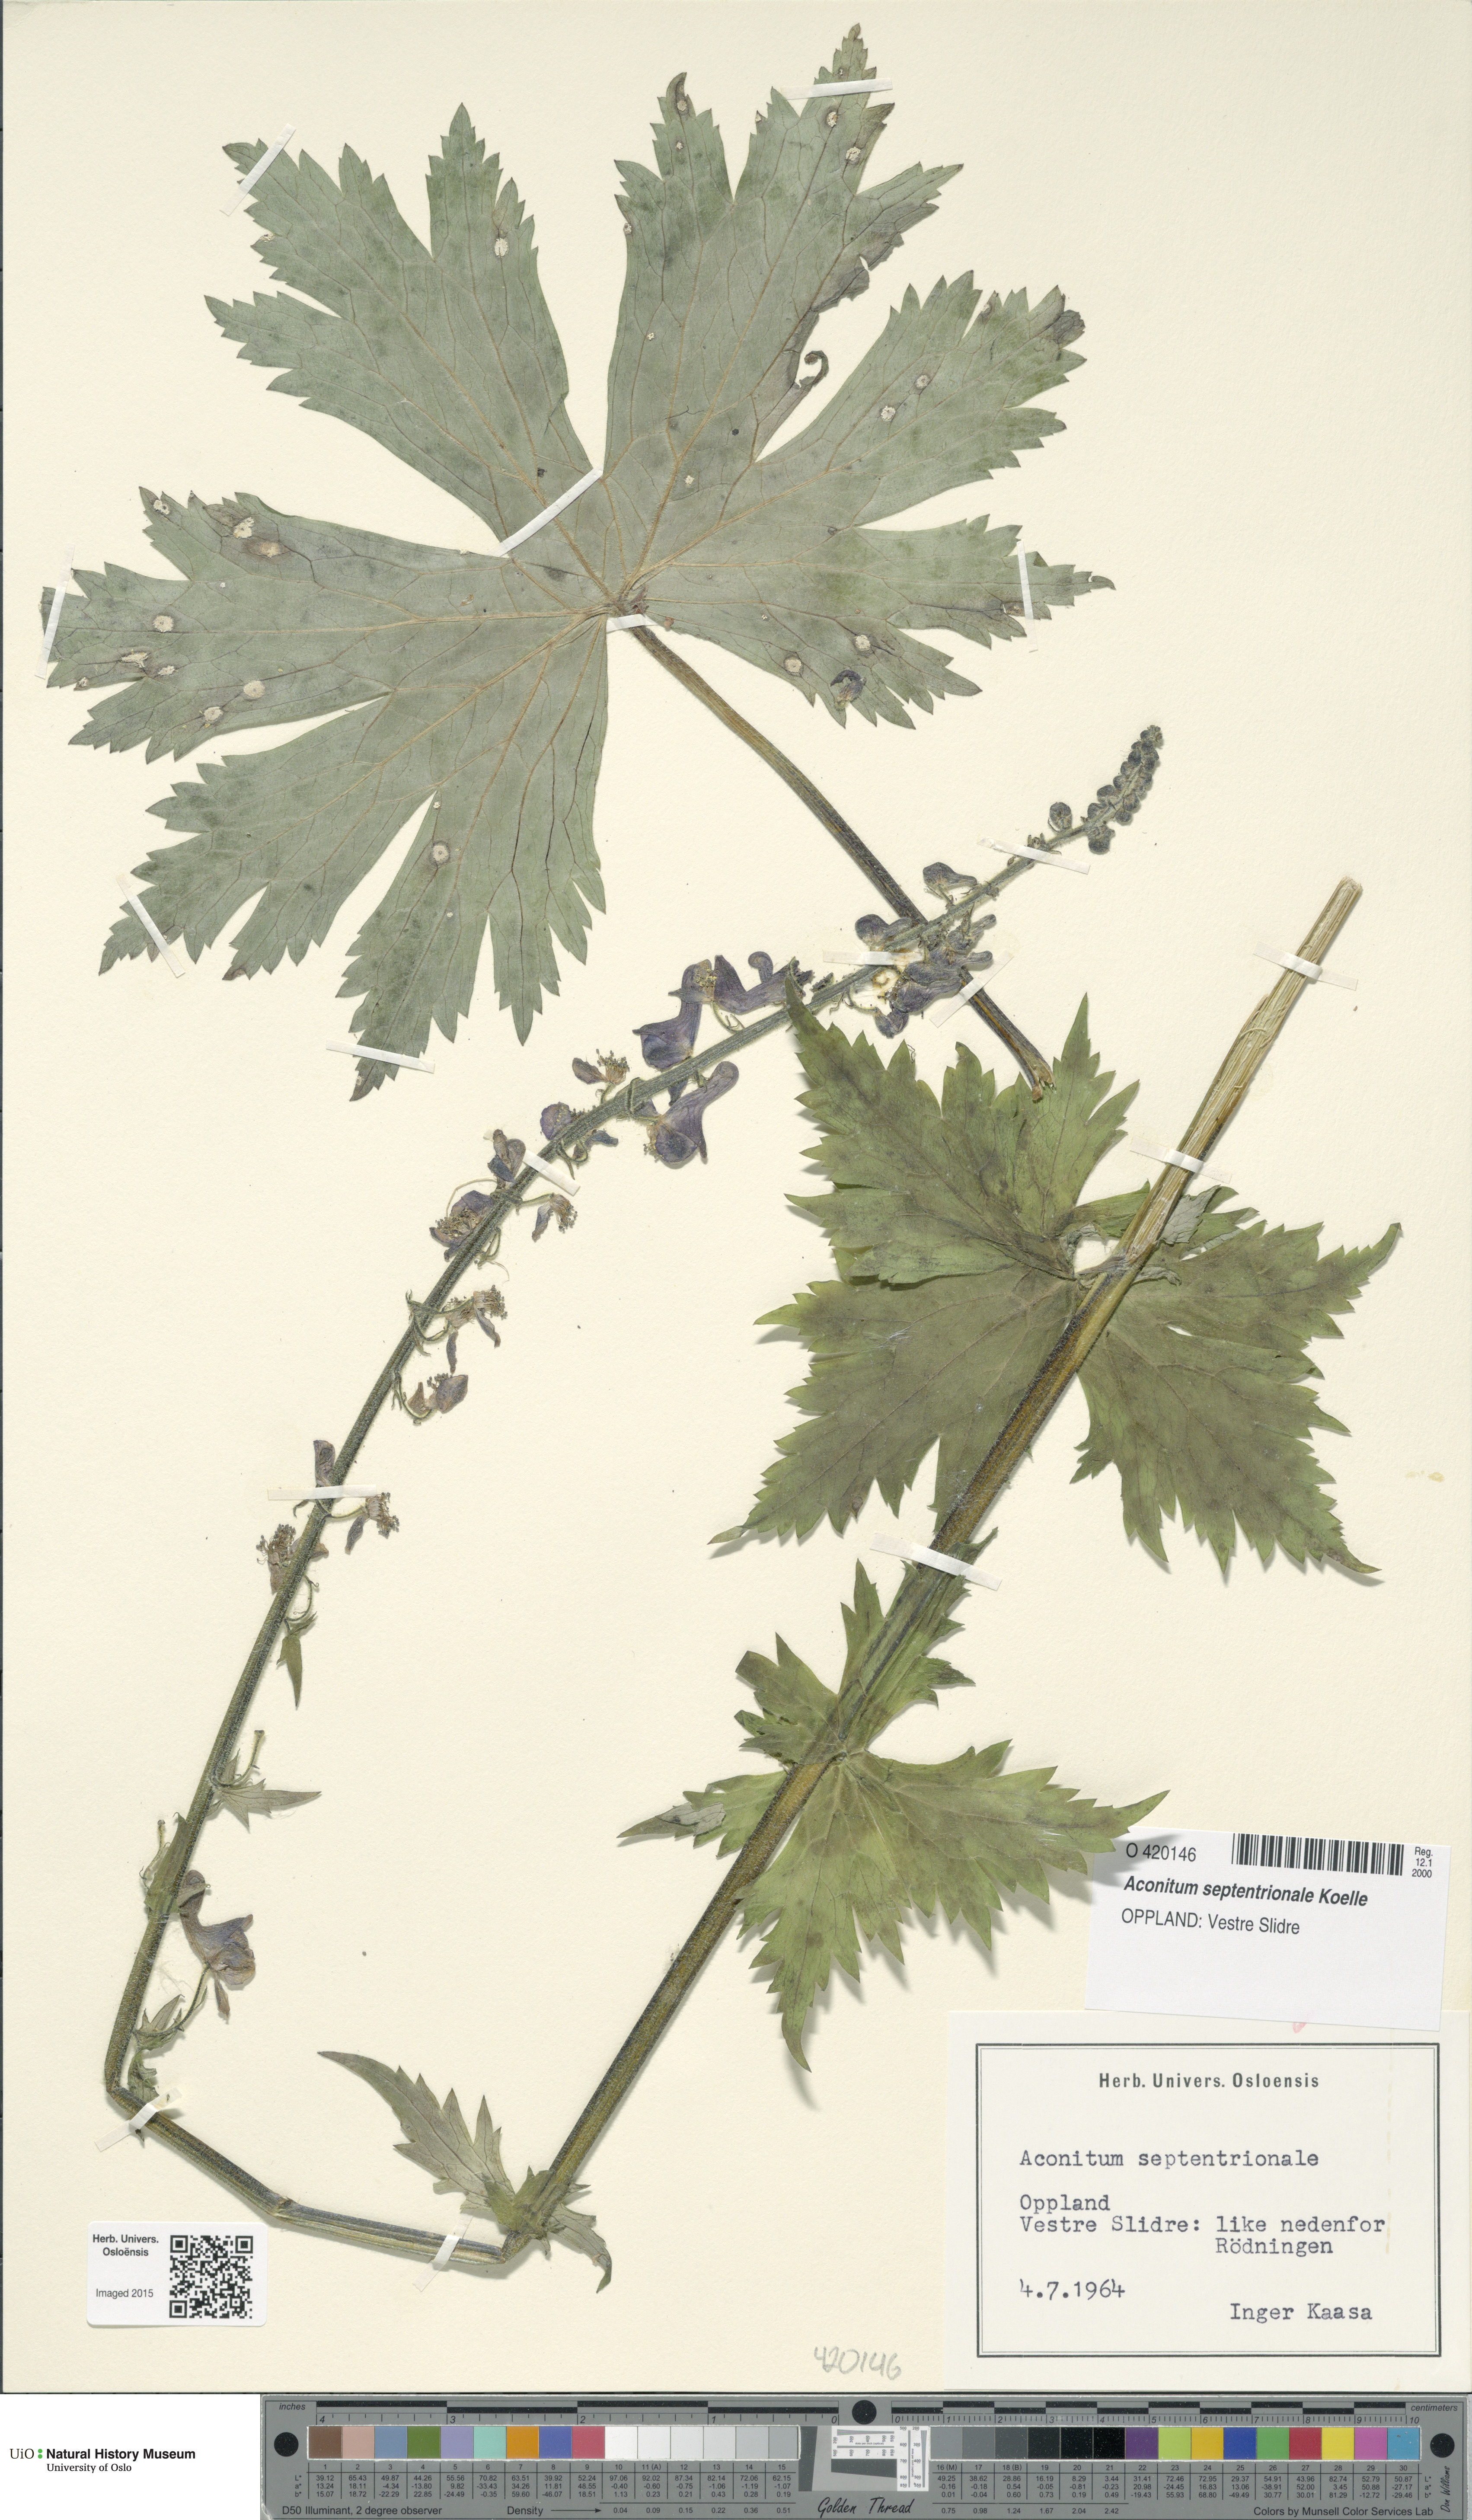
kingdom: Plantae
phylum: Tracheophyta
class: Magnoliopsida
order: Ranunculales
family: Ranunculaceae
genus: Aconitum
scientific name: Aconitum septentrionale
